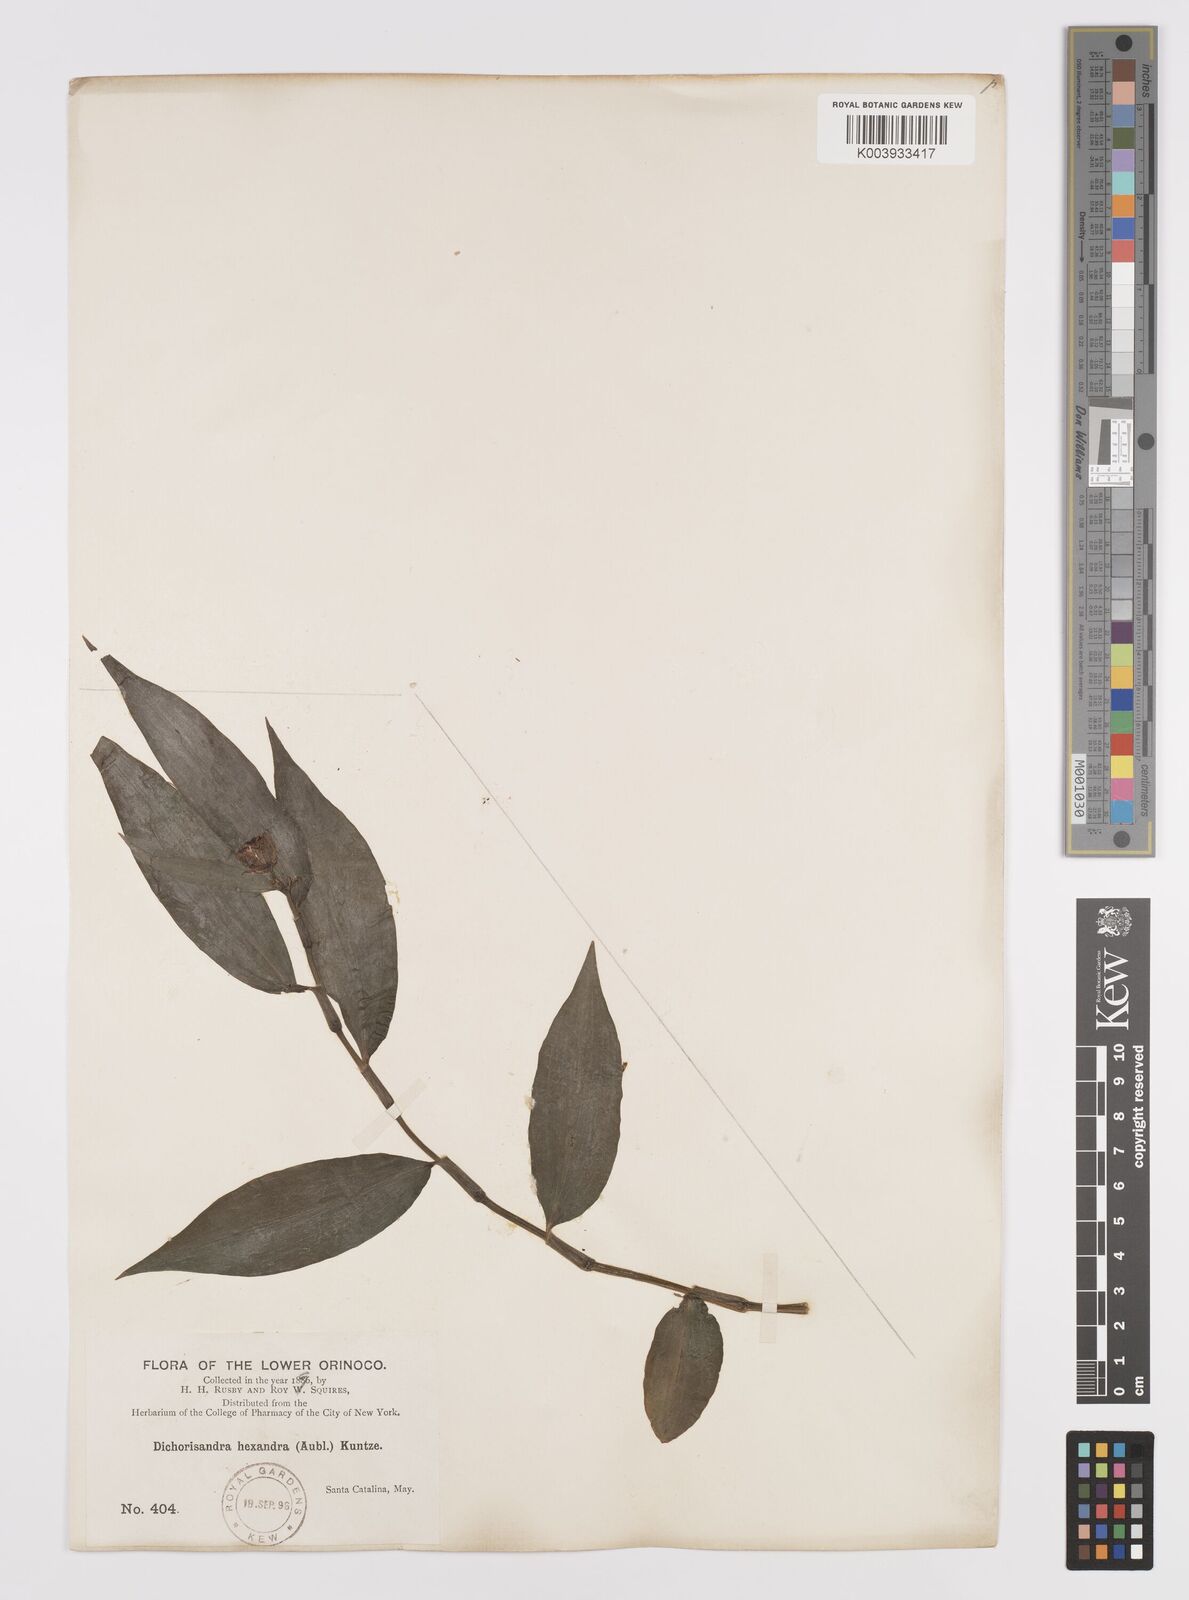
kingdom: Plantae
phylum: Tracheophyta
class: Liliopsida
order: Commelinales
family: Commelinaceae
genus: Dichorisandra
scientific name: Dichorisandra hexandra
